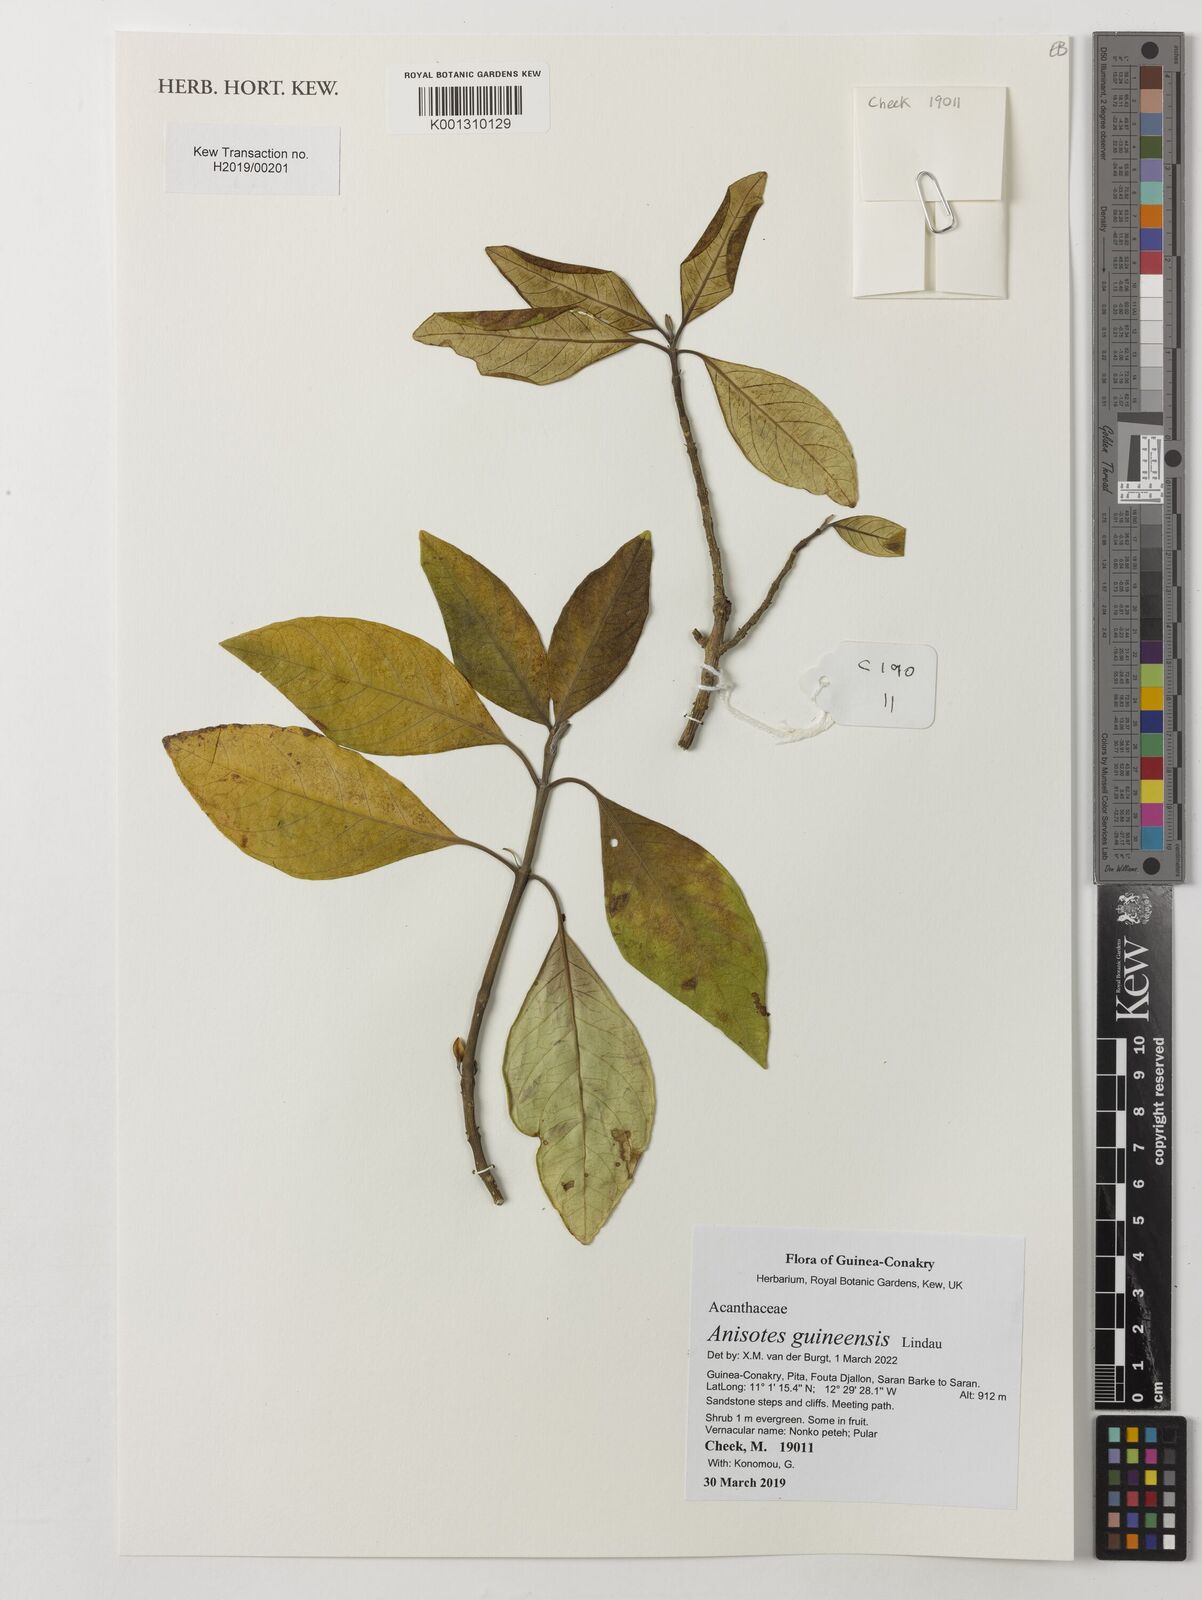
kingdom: Plantae
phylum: Tracheophyta
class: Magnoliopsida
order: Lamiales
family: Acanthaceae
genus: Anisotes
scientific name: Anisotes guineensis
